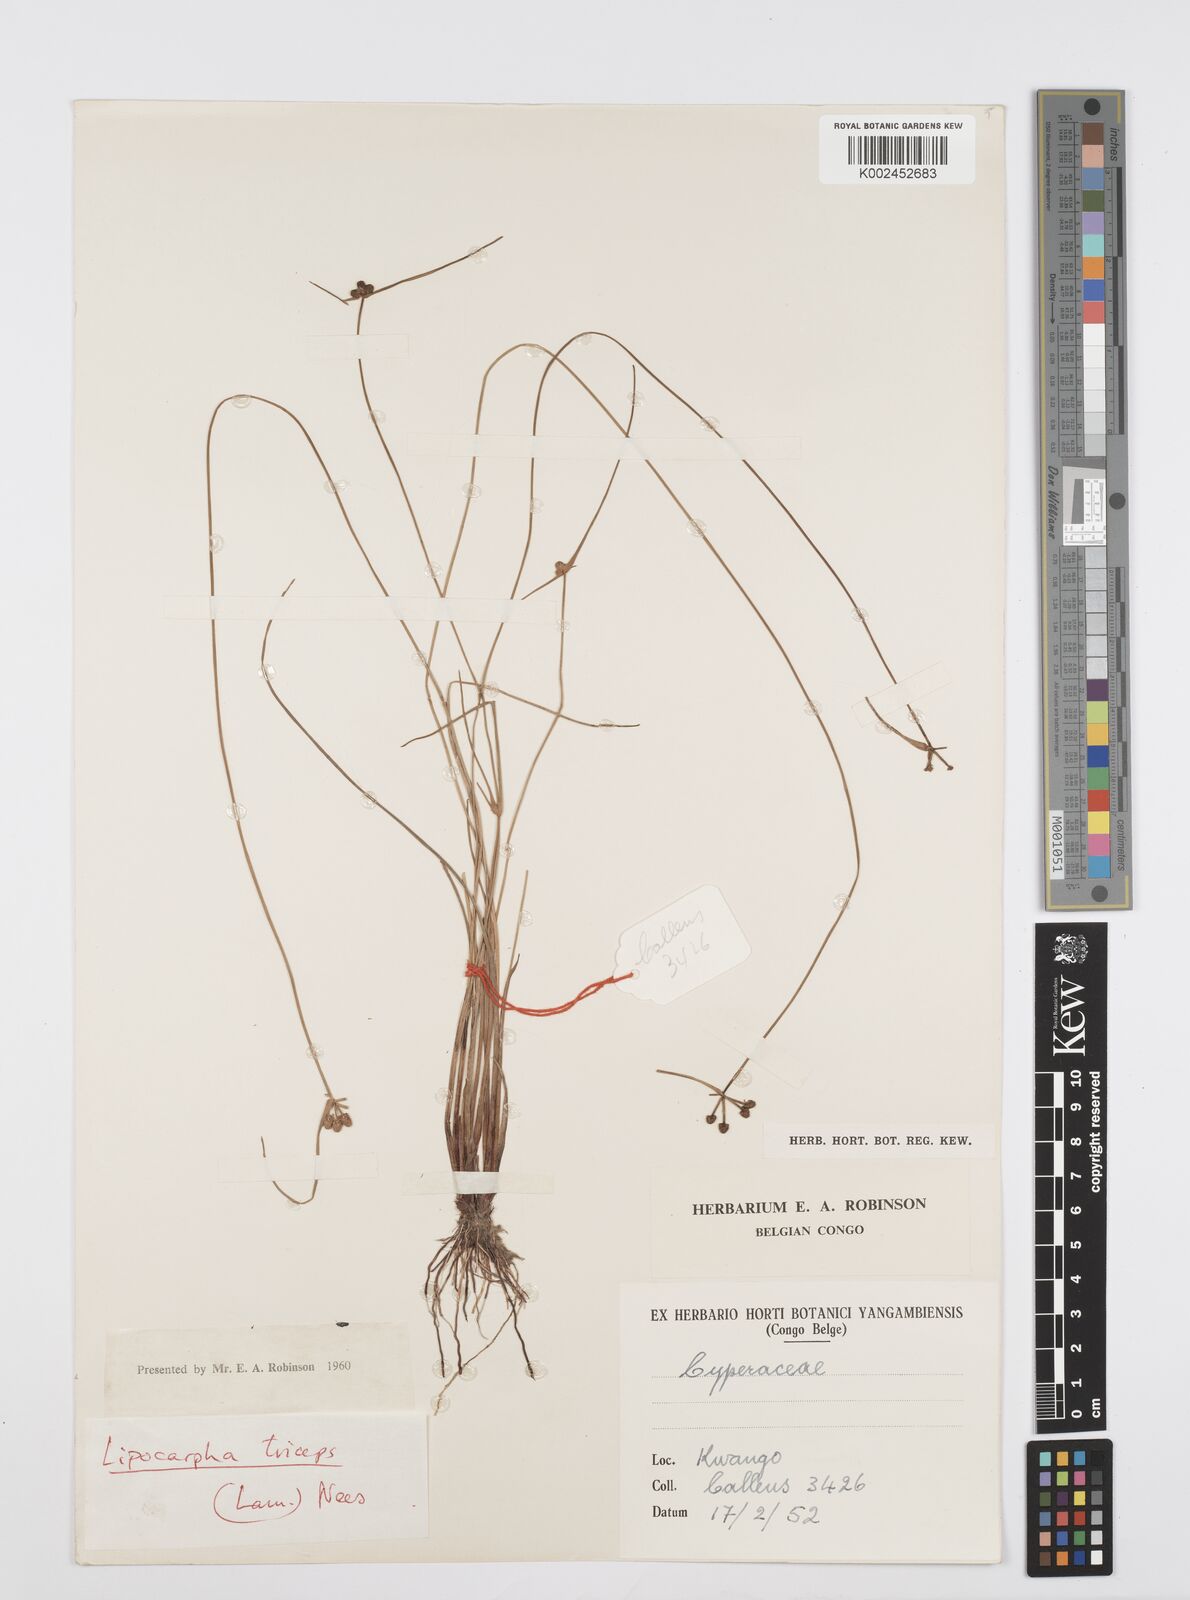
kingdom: Plantae
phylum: Tracheophyta
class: Liliopsida
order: Poales
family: Cyperaceae
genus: Cyperus
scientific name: Cyperus filiformis
